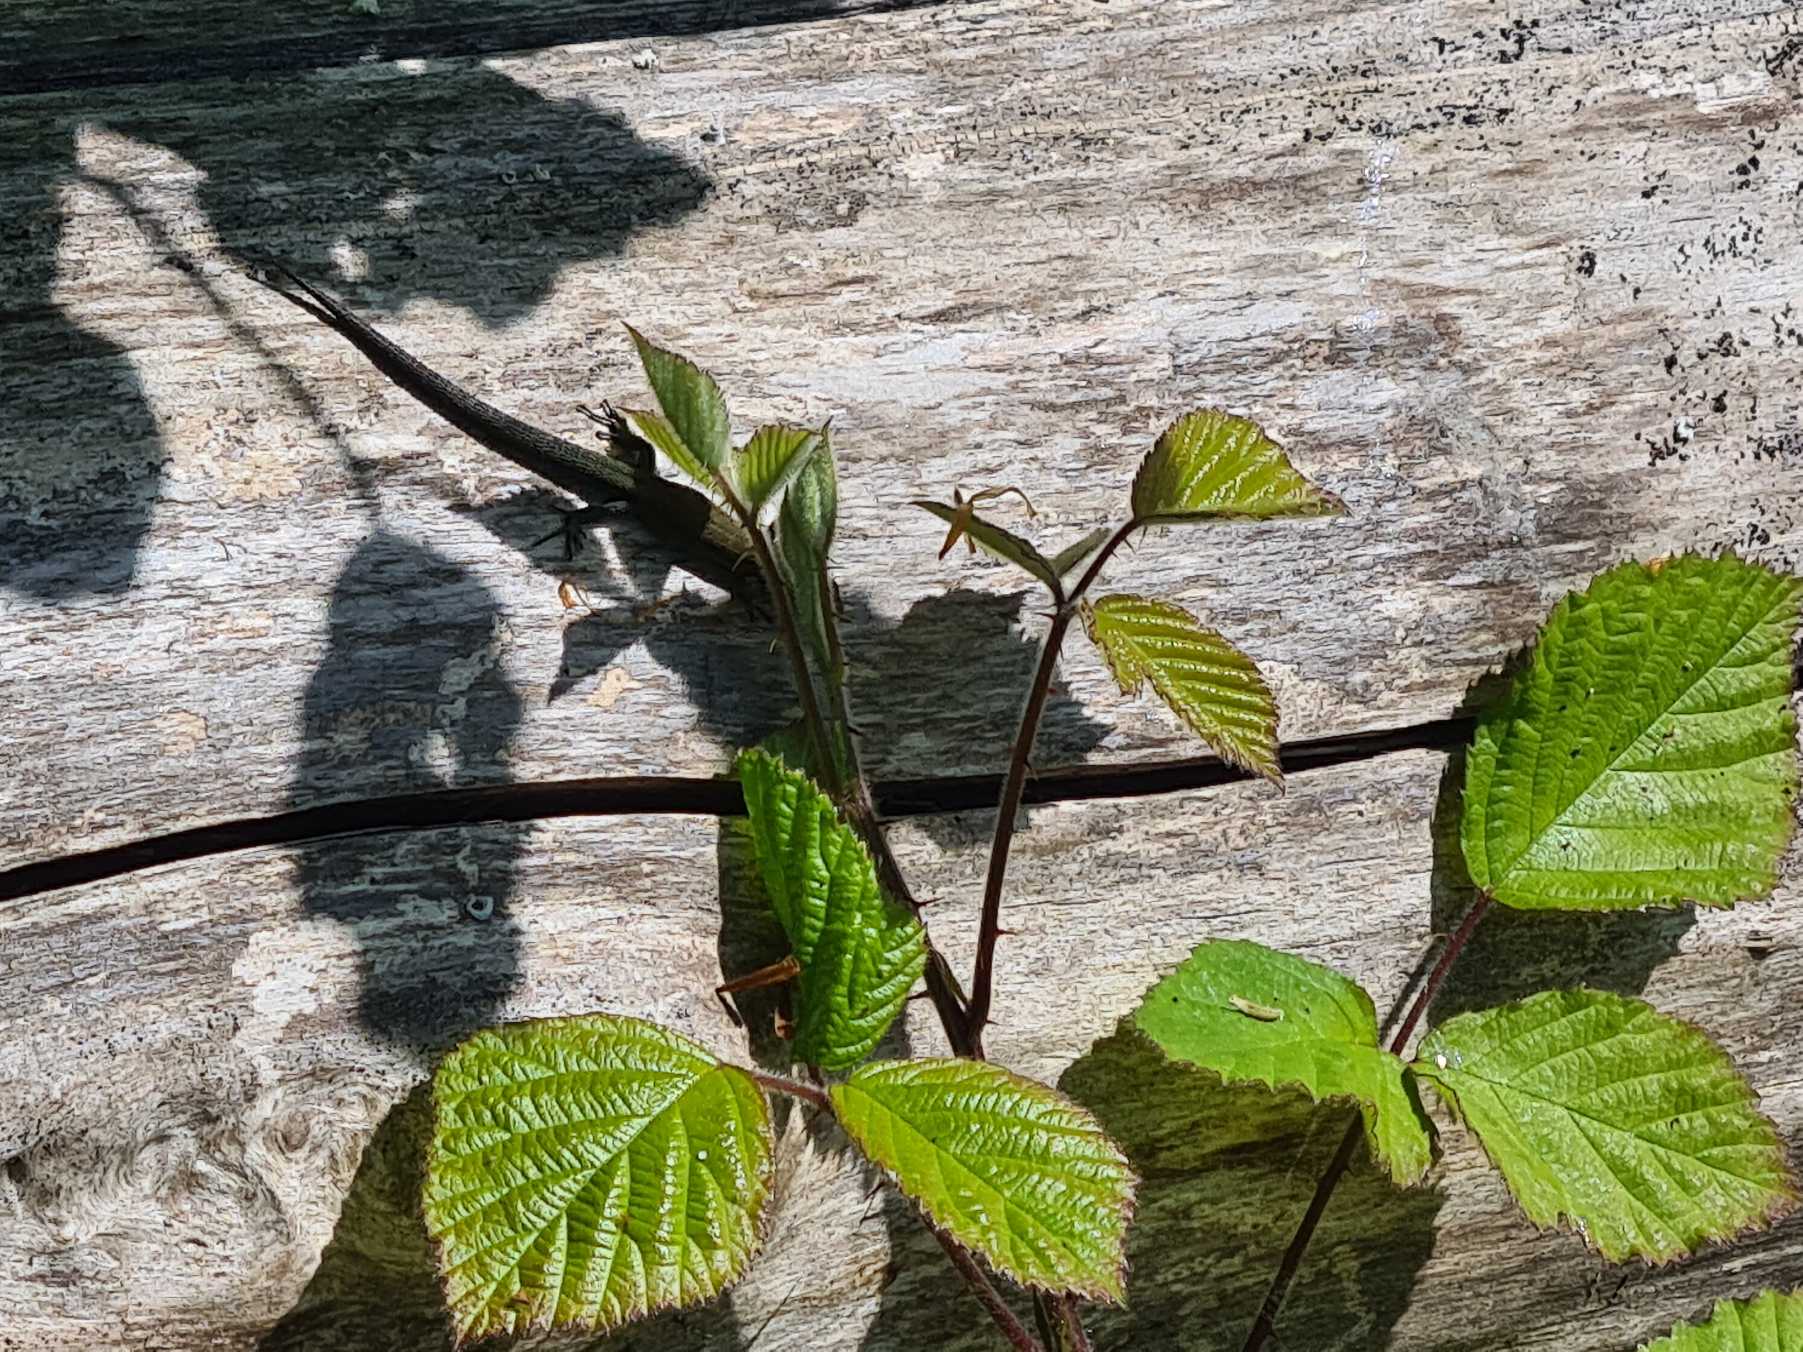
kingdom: Animalia
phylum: Chordata
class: Squamata
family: Lacertidae
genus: Zootoca
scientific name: Zootoca vivipara
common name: Skovfirben
